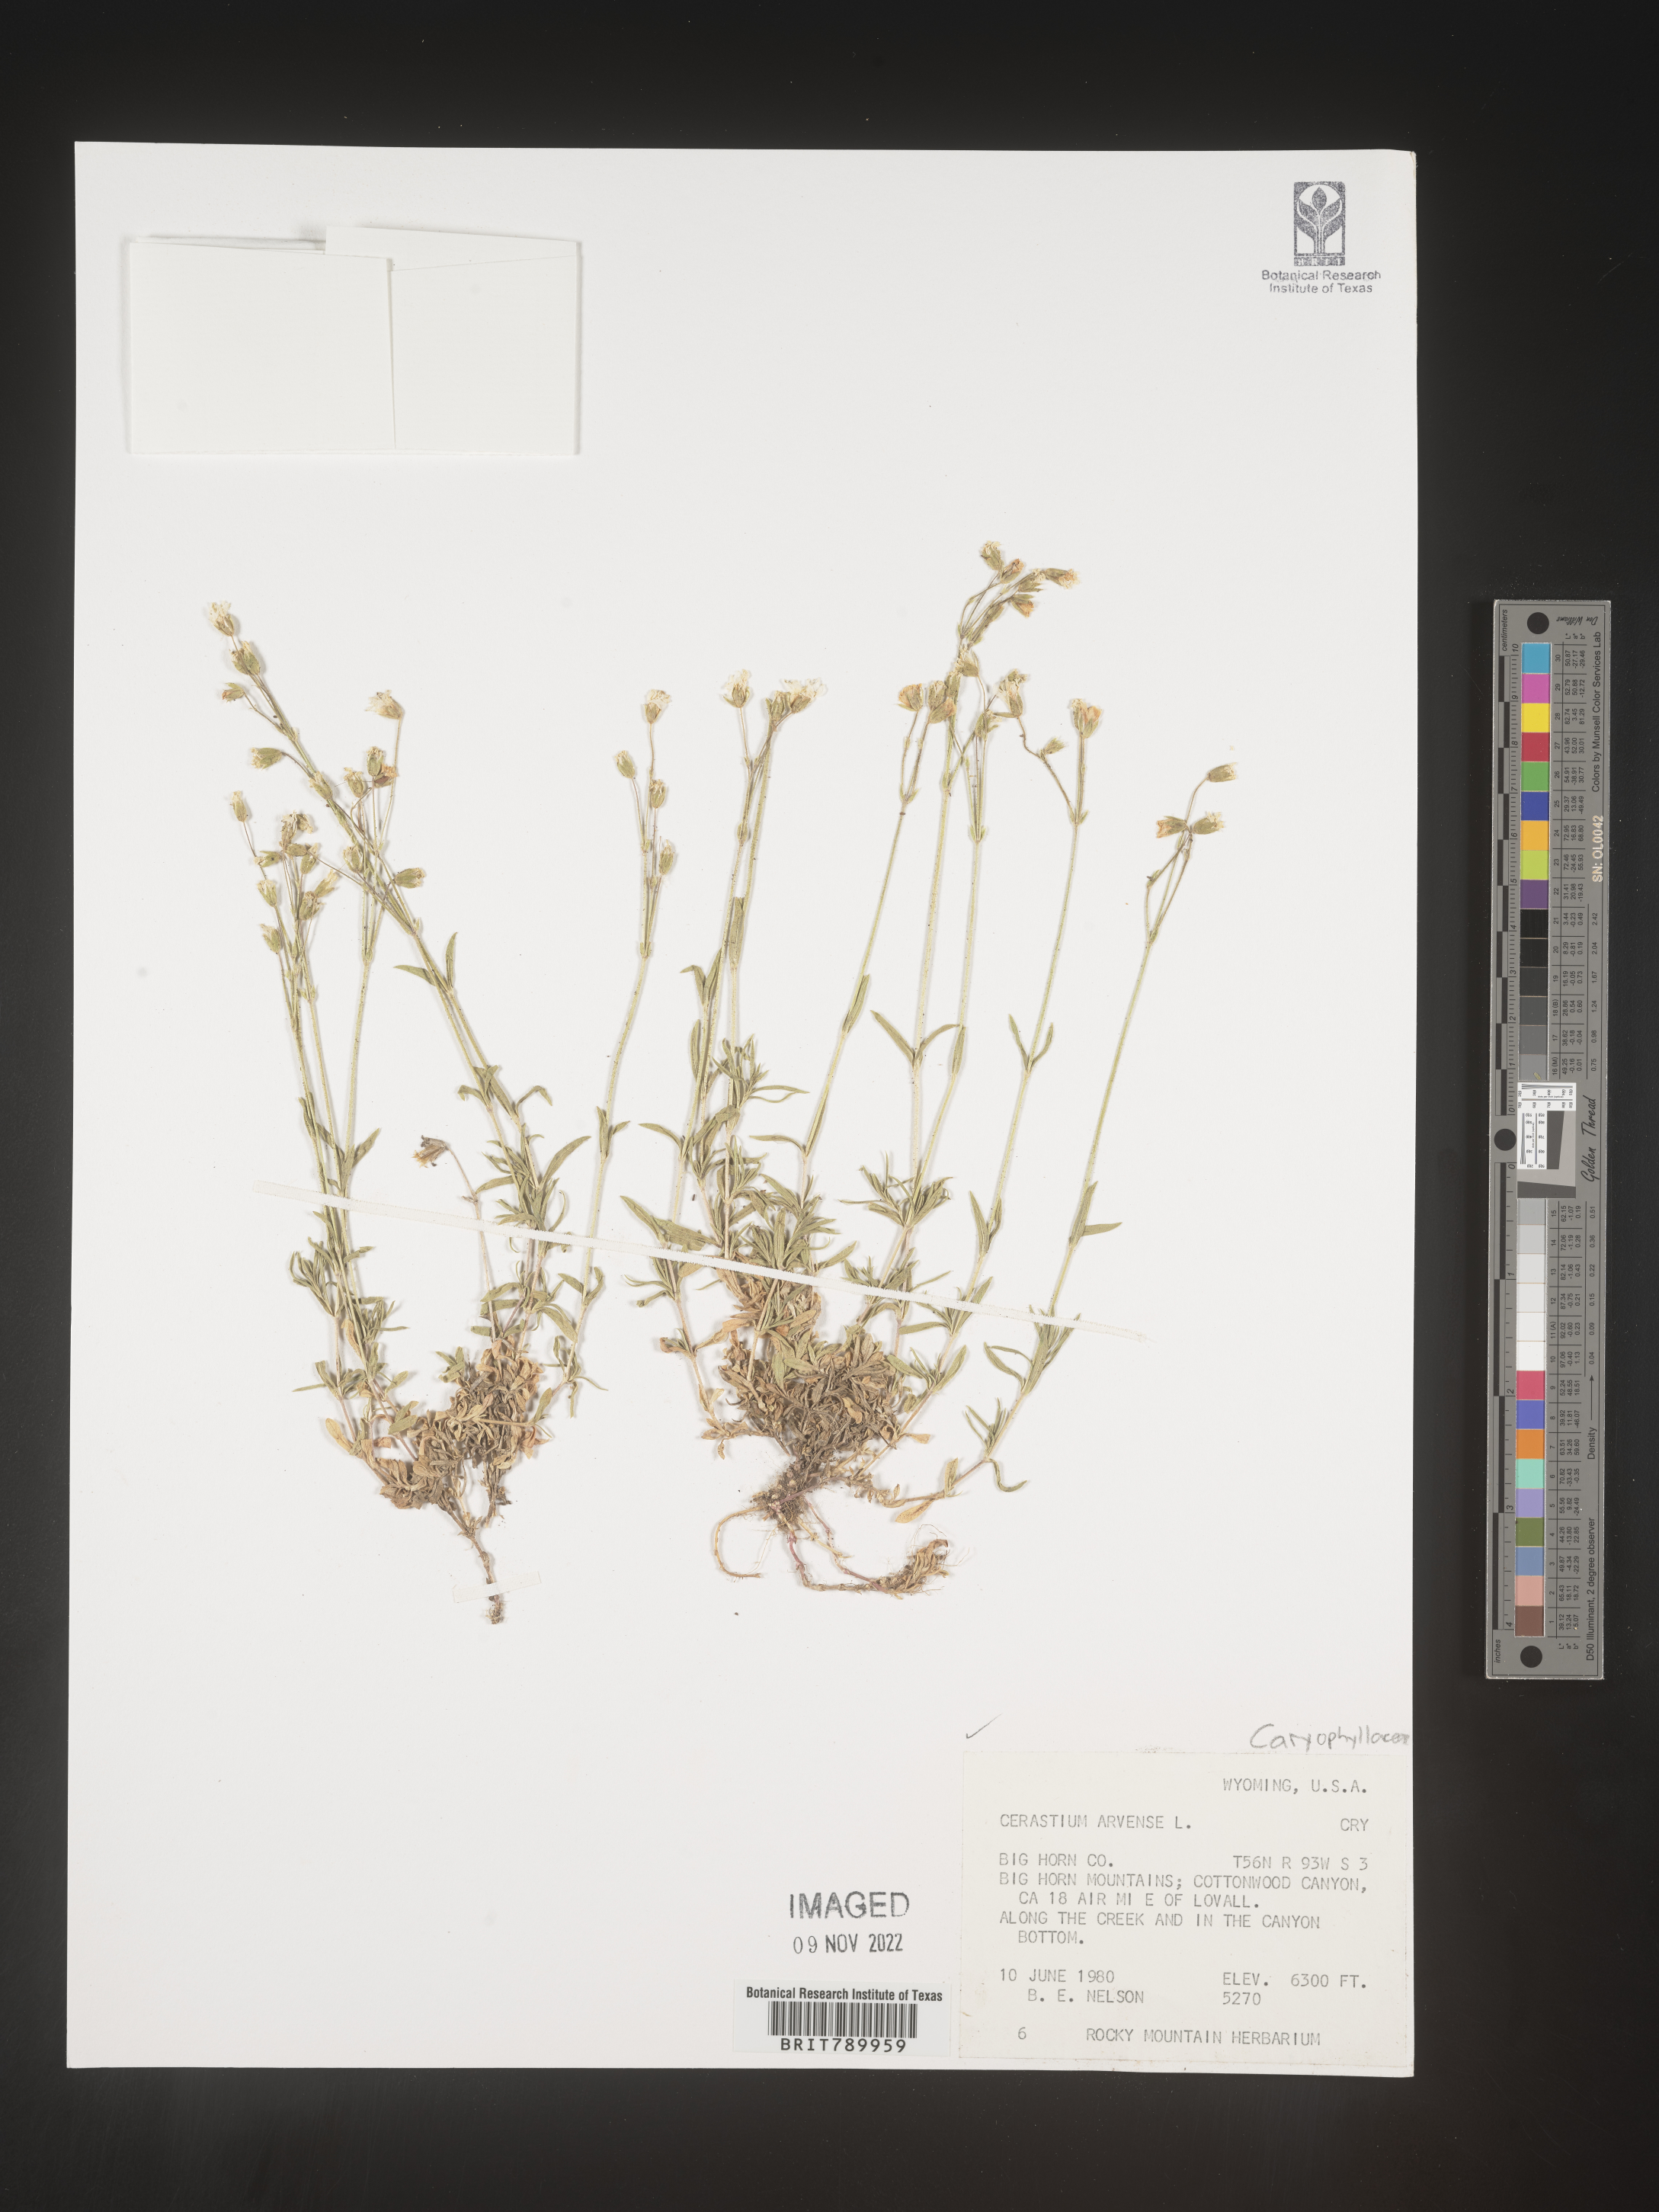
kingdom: Plantae
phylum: Tracheophyta
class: Magnoliopsida
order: Caryophyllales
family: Caryophyllaceae
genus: Cerastium
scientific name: Cerastium arvense
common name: Field mouse-ear
